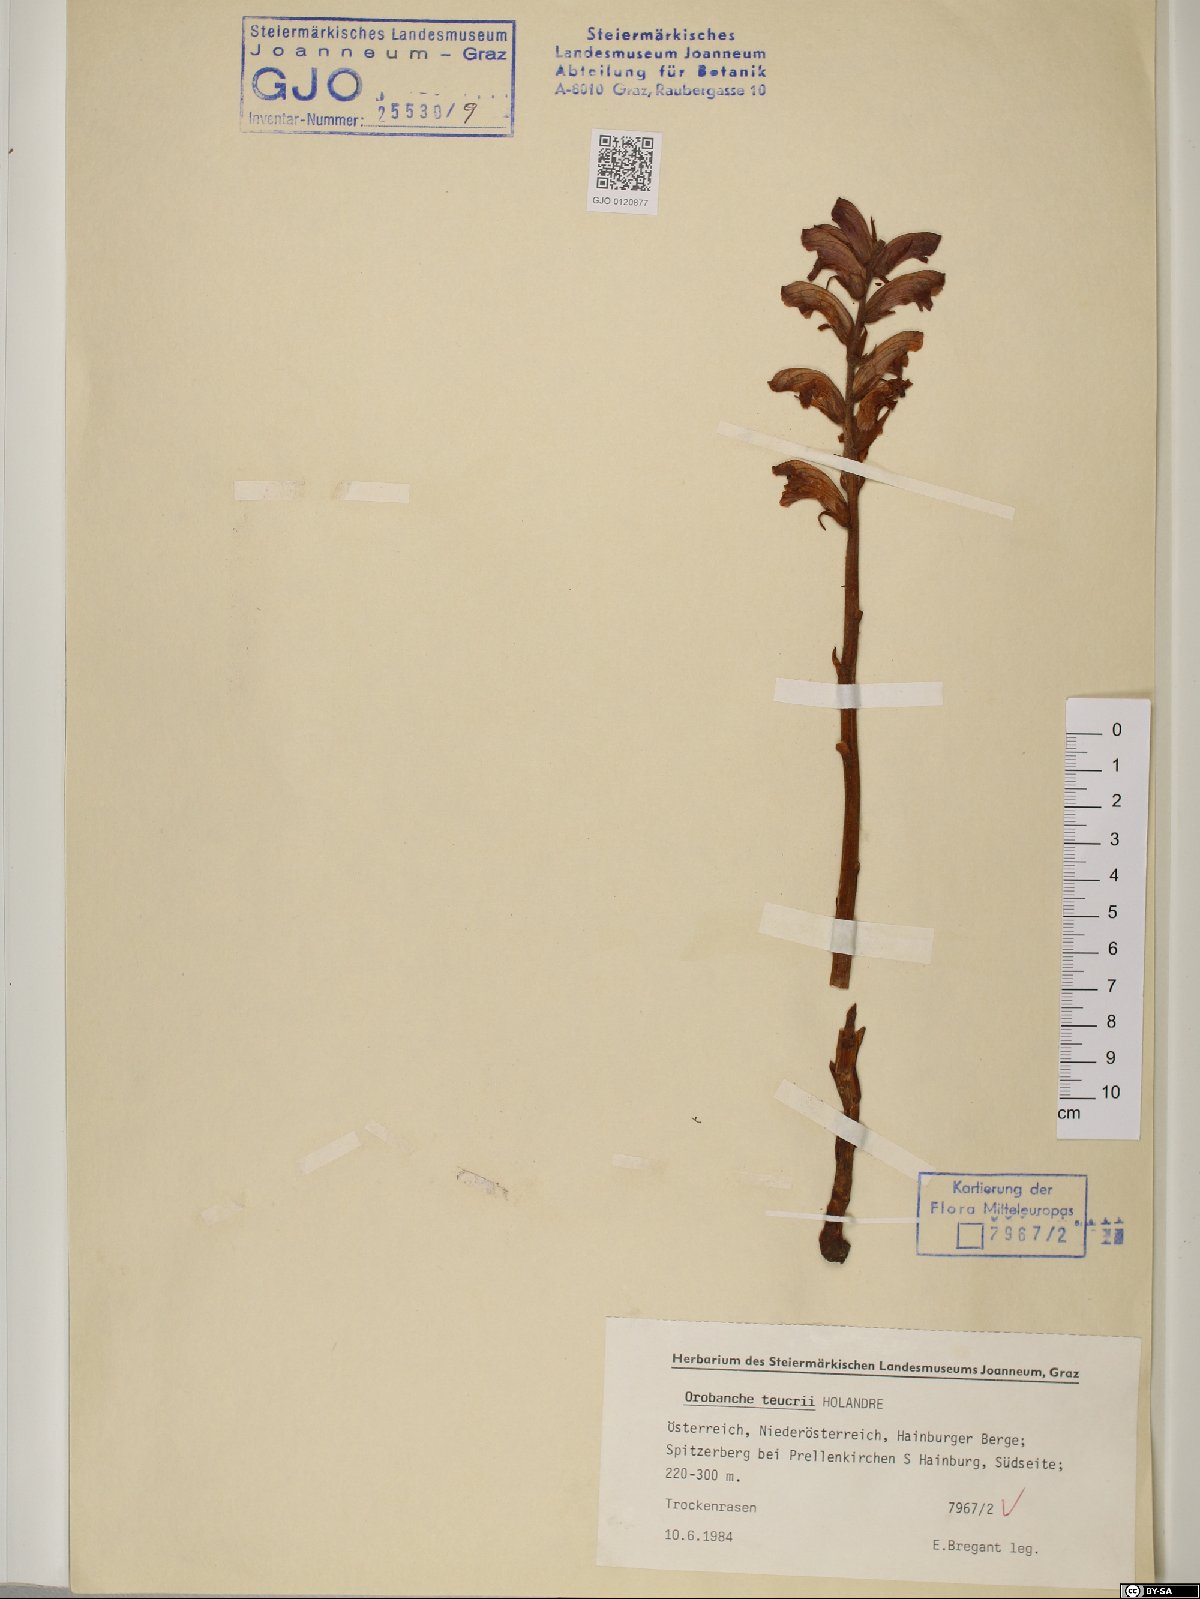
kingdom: Plantae
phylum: Tracheophyta
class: Magnoliopsida
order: Lamiales
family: Orobanchaceae
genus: Orobanche
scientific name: Orobanche teucrii
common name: Germander broomrape
